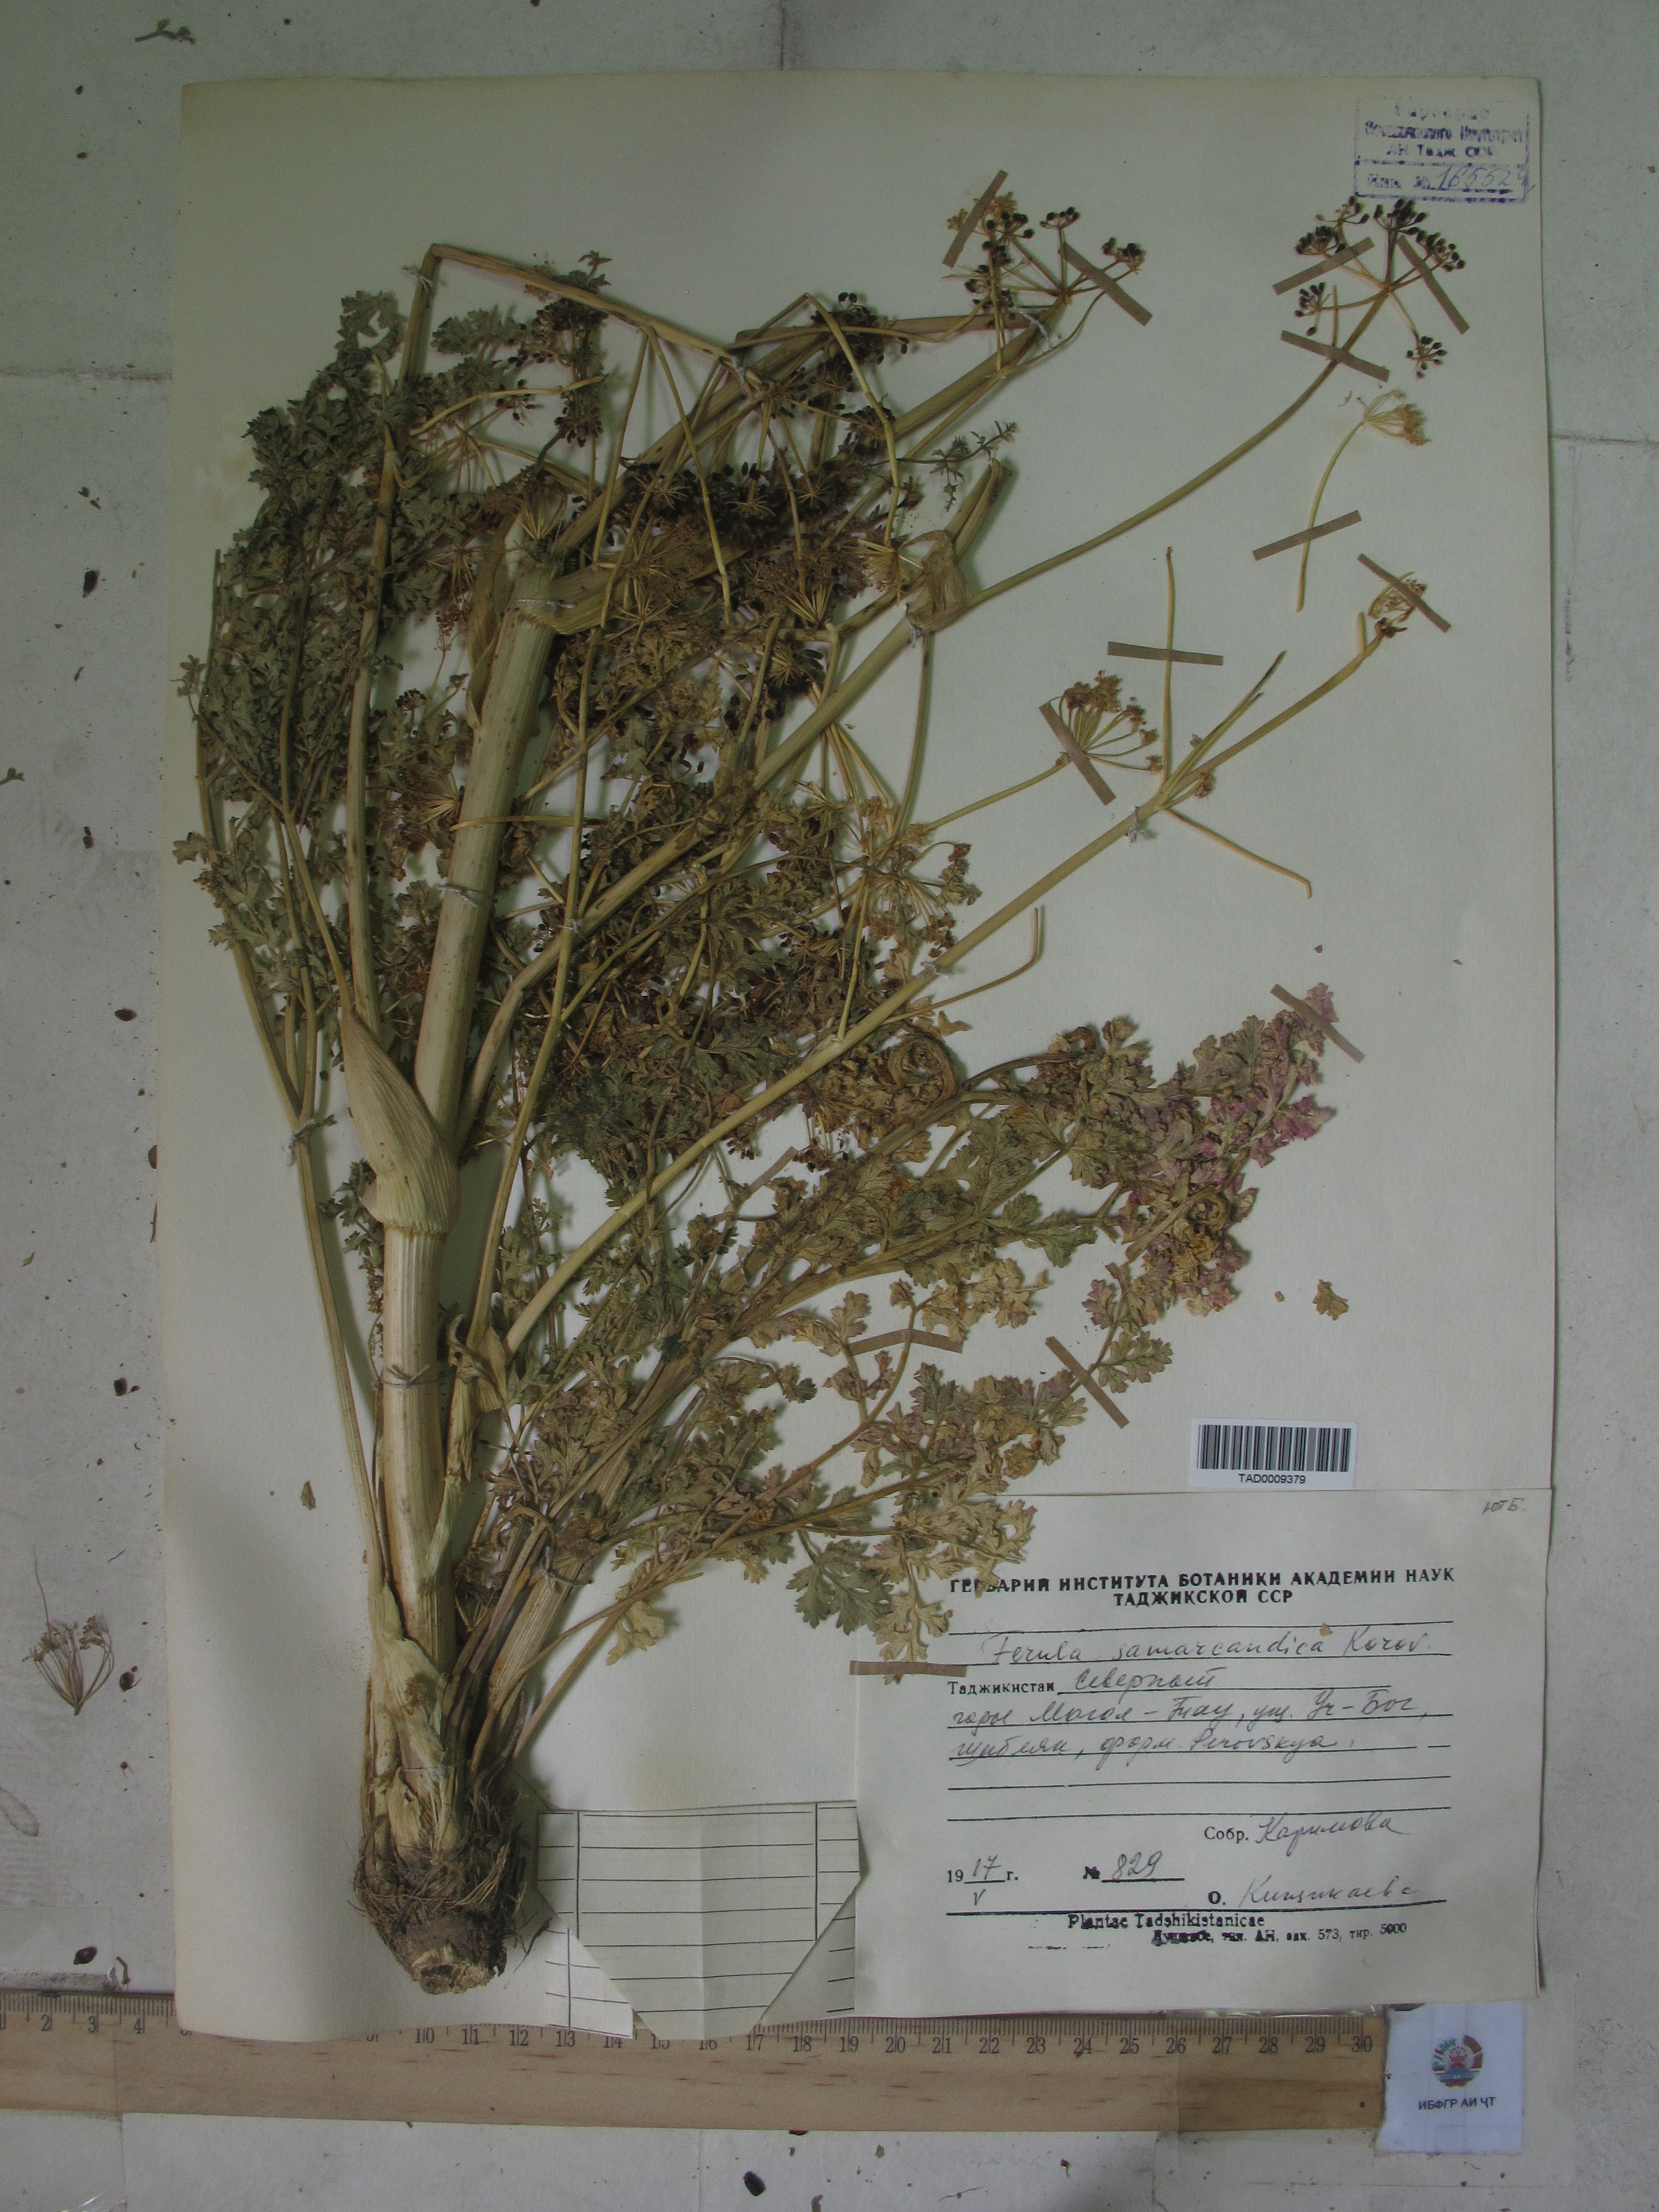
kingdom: Plantae
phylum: Tracheophyta
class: Magnoliopsida
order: Apiales
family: Apiaceae
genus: Ferula
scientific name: Ferula samarkandica
